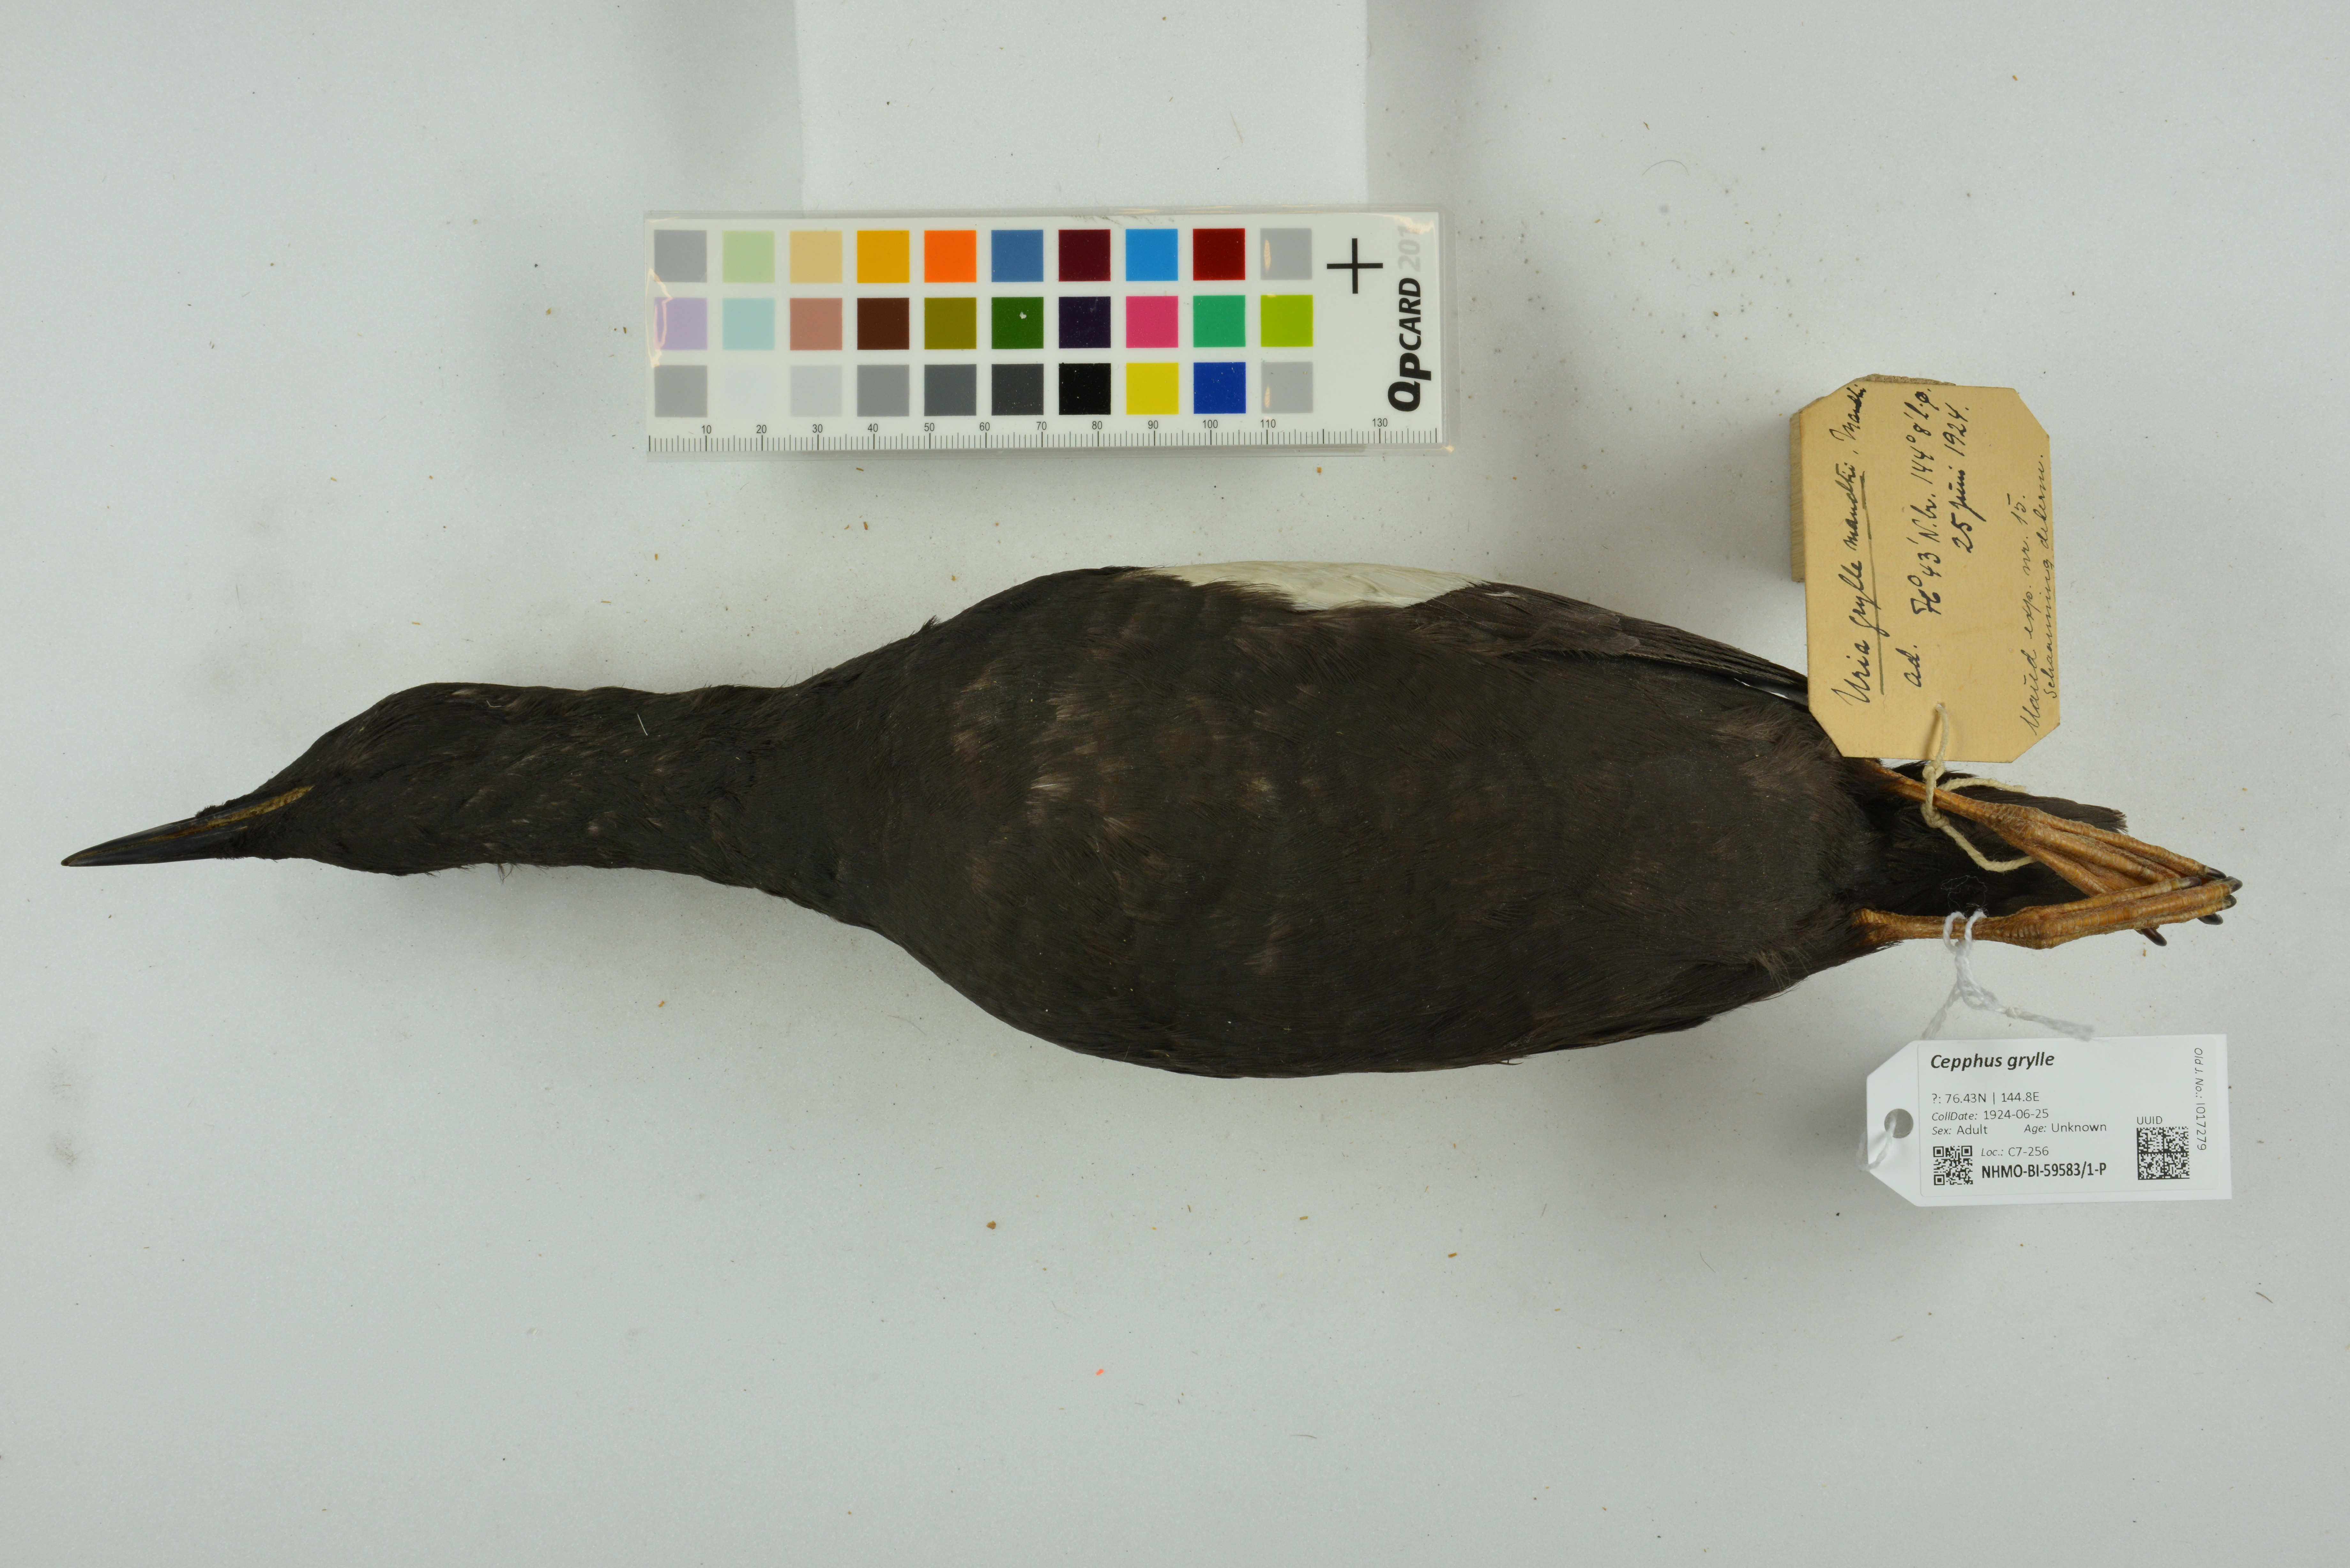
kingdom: Animalia
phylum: Chordata
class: Aves
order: Charadriiformes
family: Alcidae
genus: Cepphus
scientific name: Cepphus grylle
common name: Black guillemot
